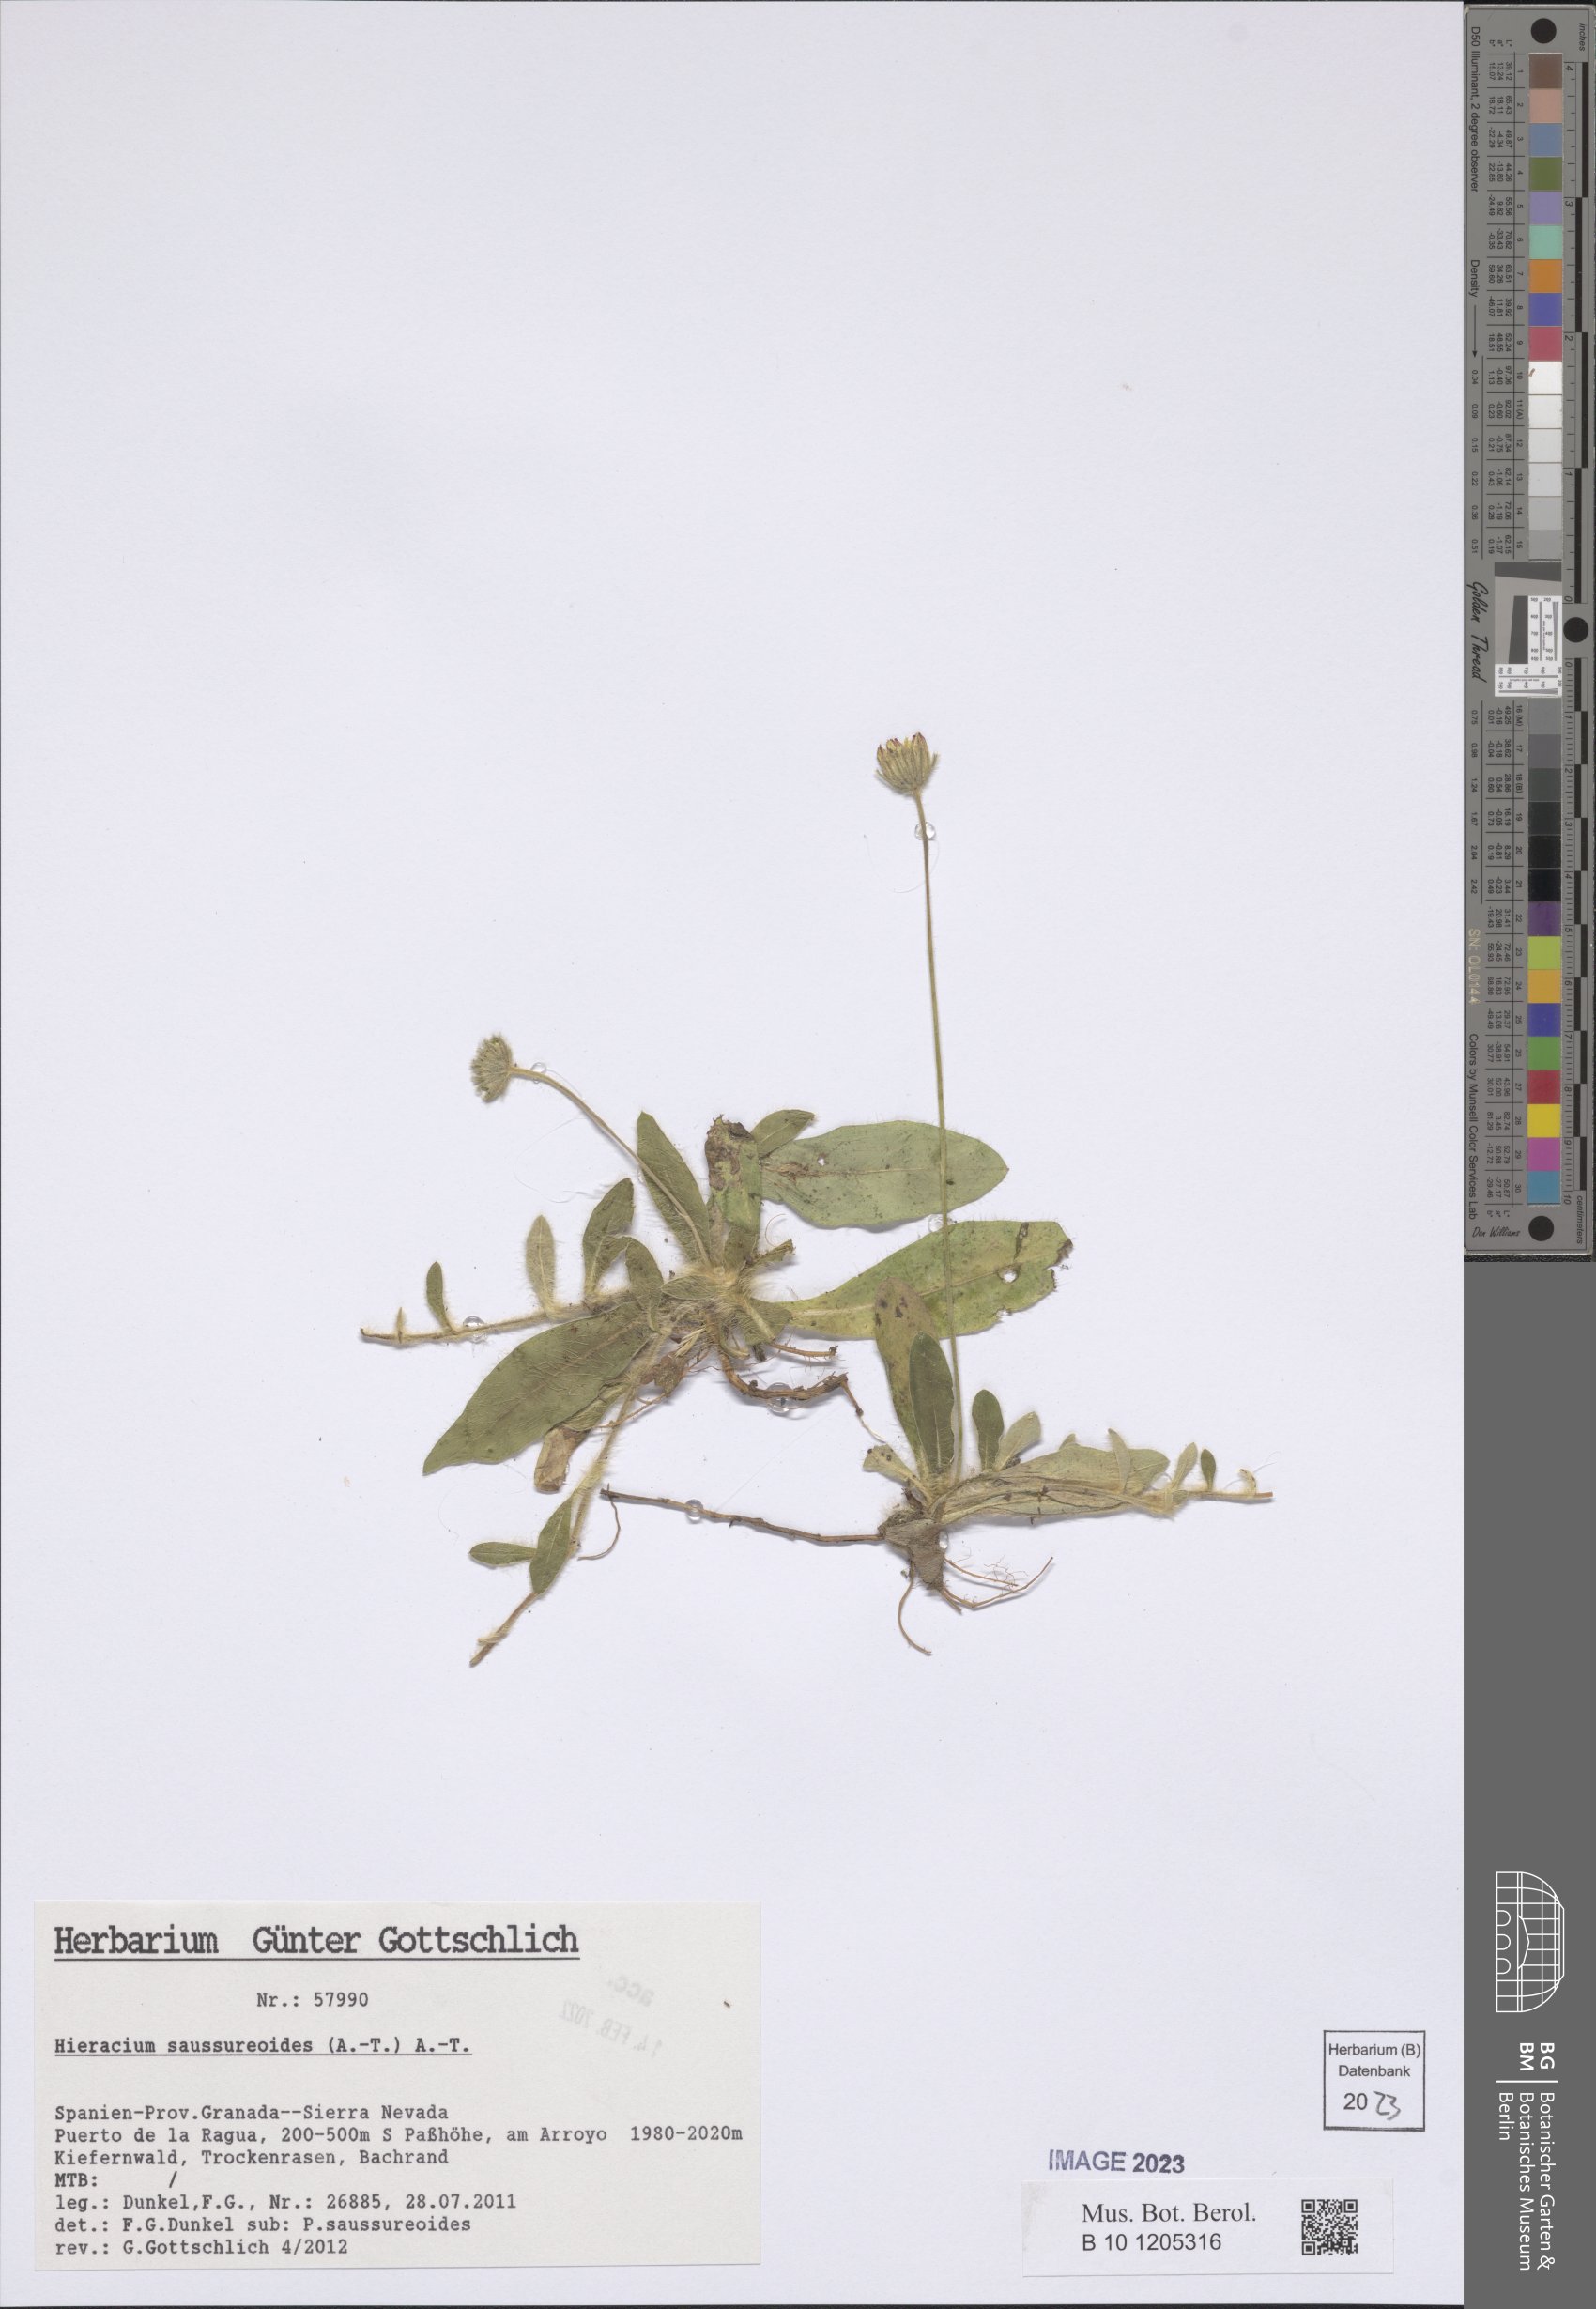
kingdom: Plantae
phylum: Tracheophyta
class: Magnoliopsida
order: Asterales
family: Asteraceae
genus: Pilosella
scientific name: Pilosella saussureoides
